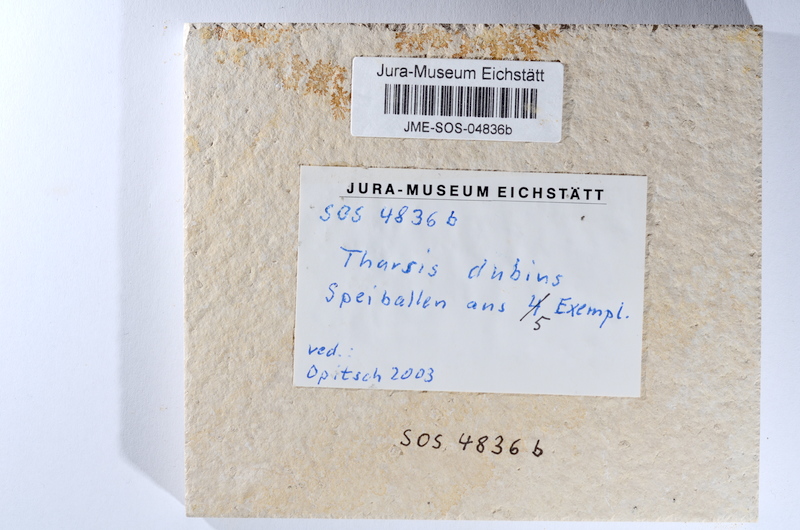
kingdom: Animalia
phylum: Chordata
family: Ascalaboidae
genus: Tharsis
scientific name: Tharsis dubius
